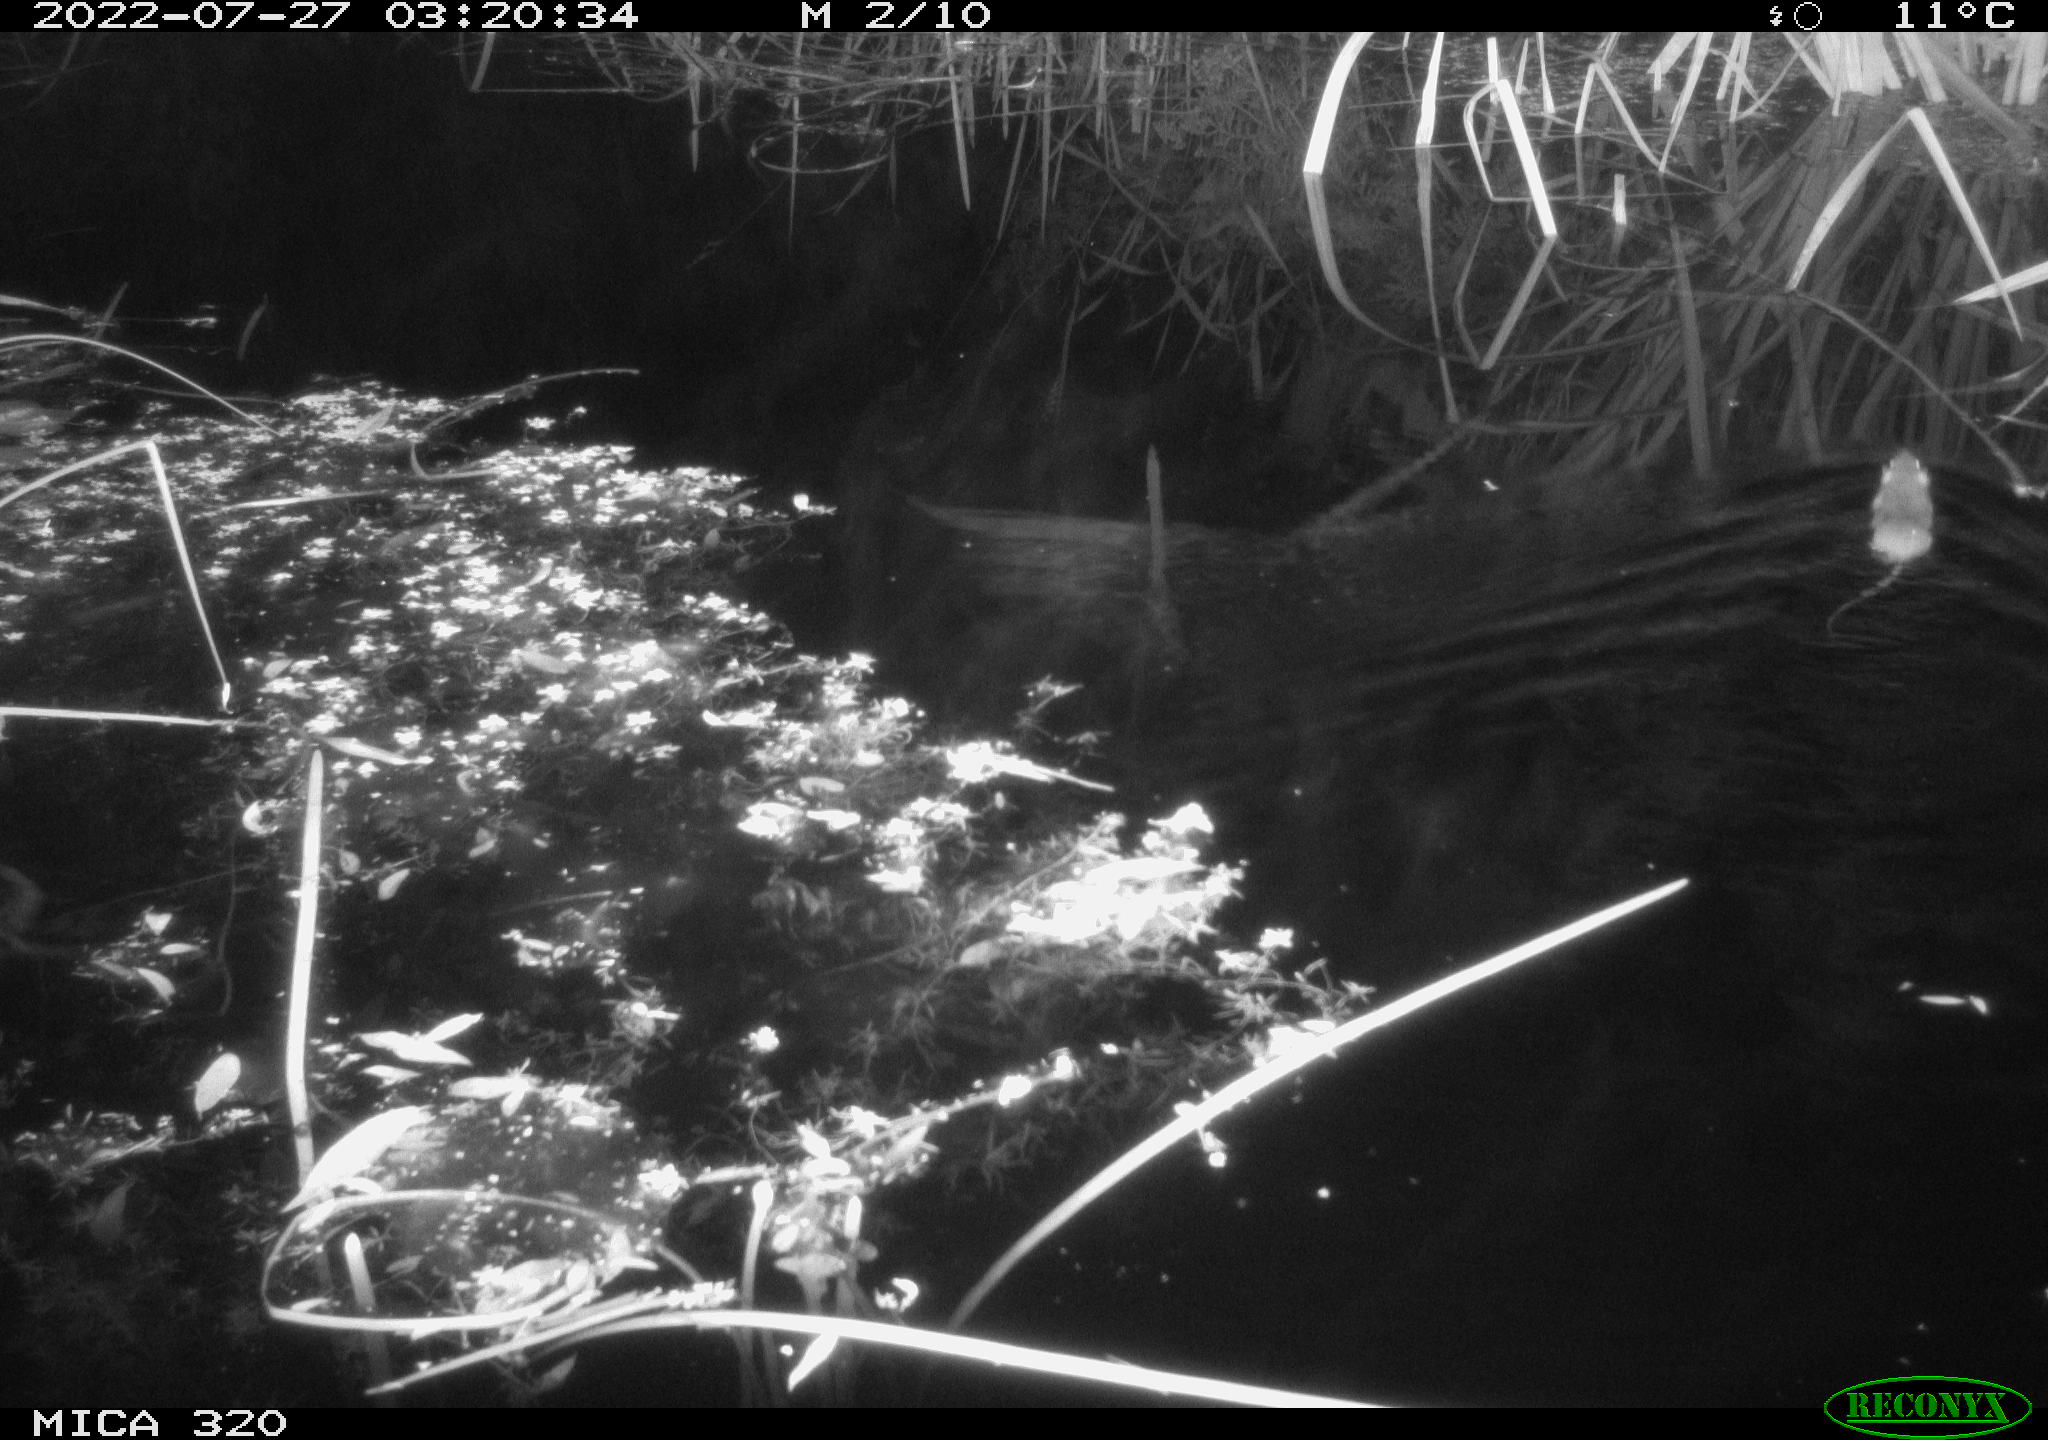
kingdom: Animalia
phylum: Chordata
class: Mammalia
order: Rodentia
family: Cricetidae
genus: Ondatra
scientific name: Ondatra zibethicus
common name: Muskrat
